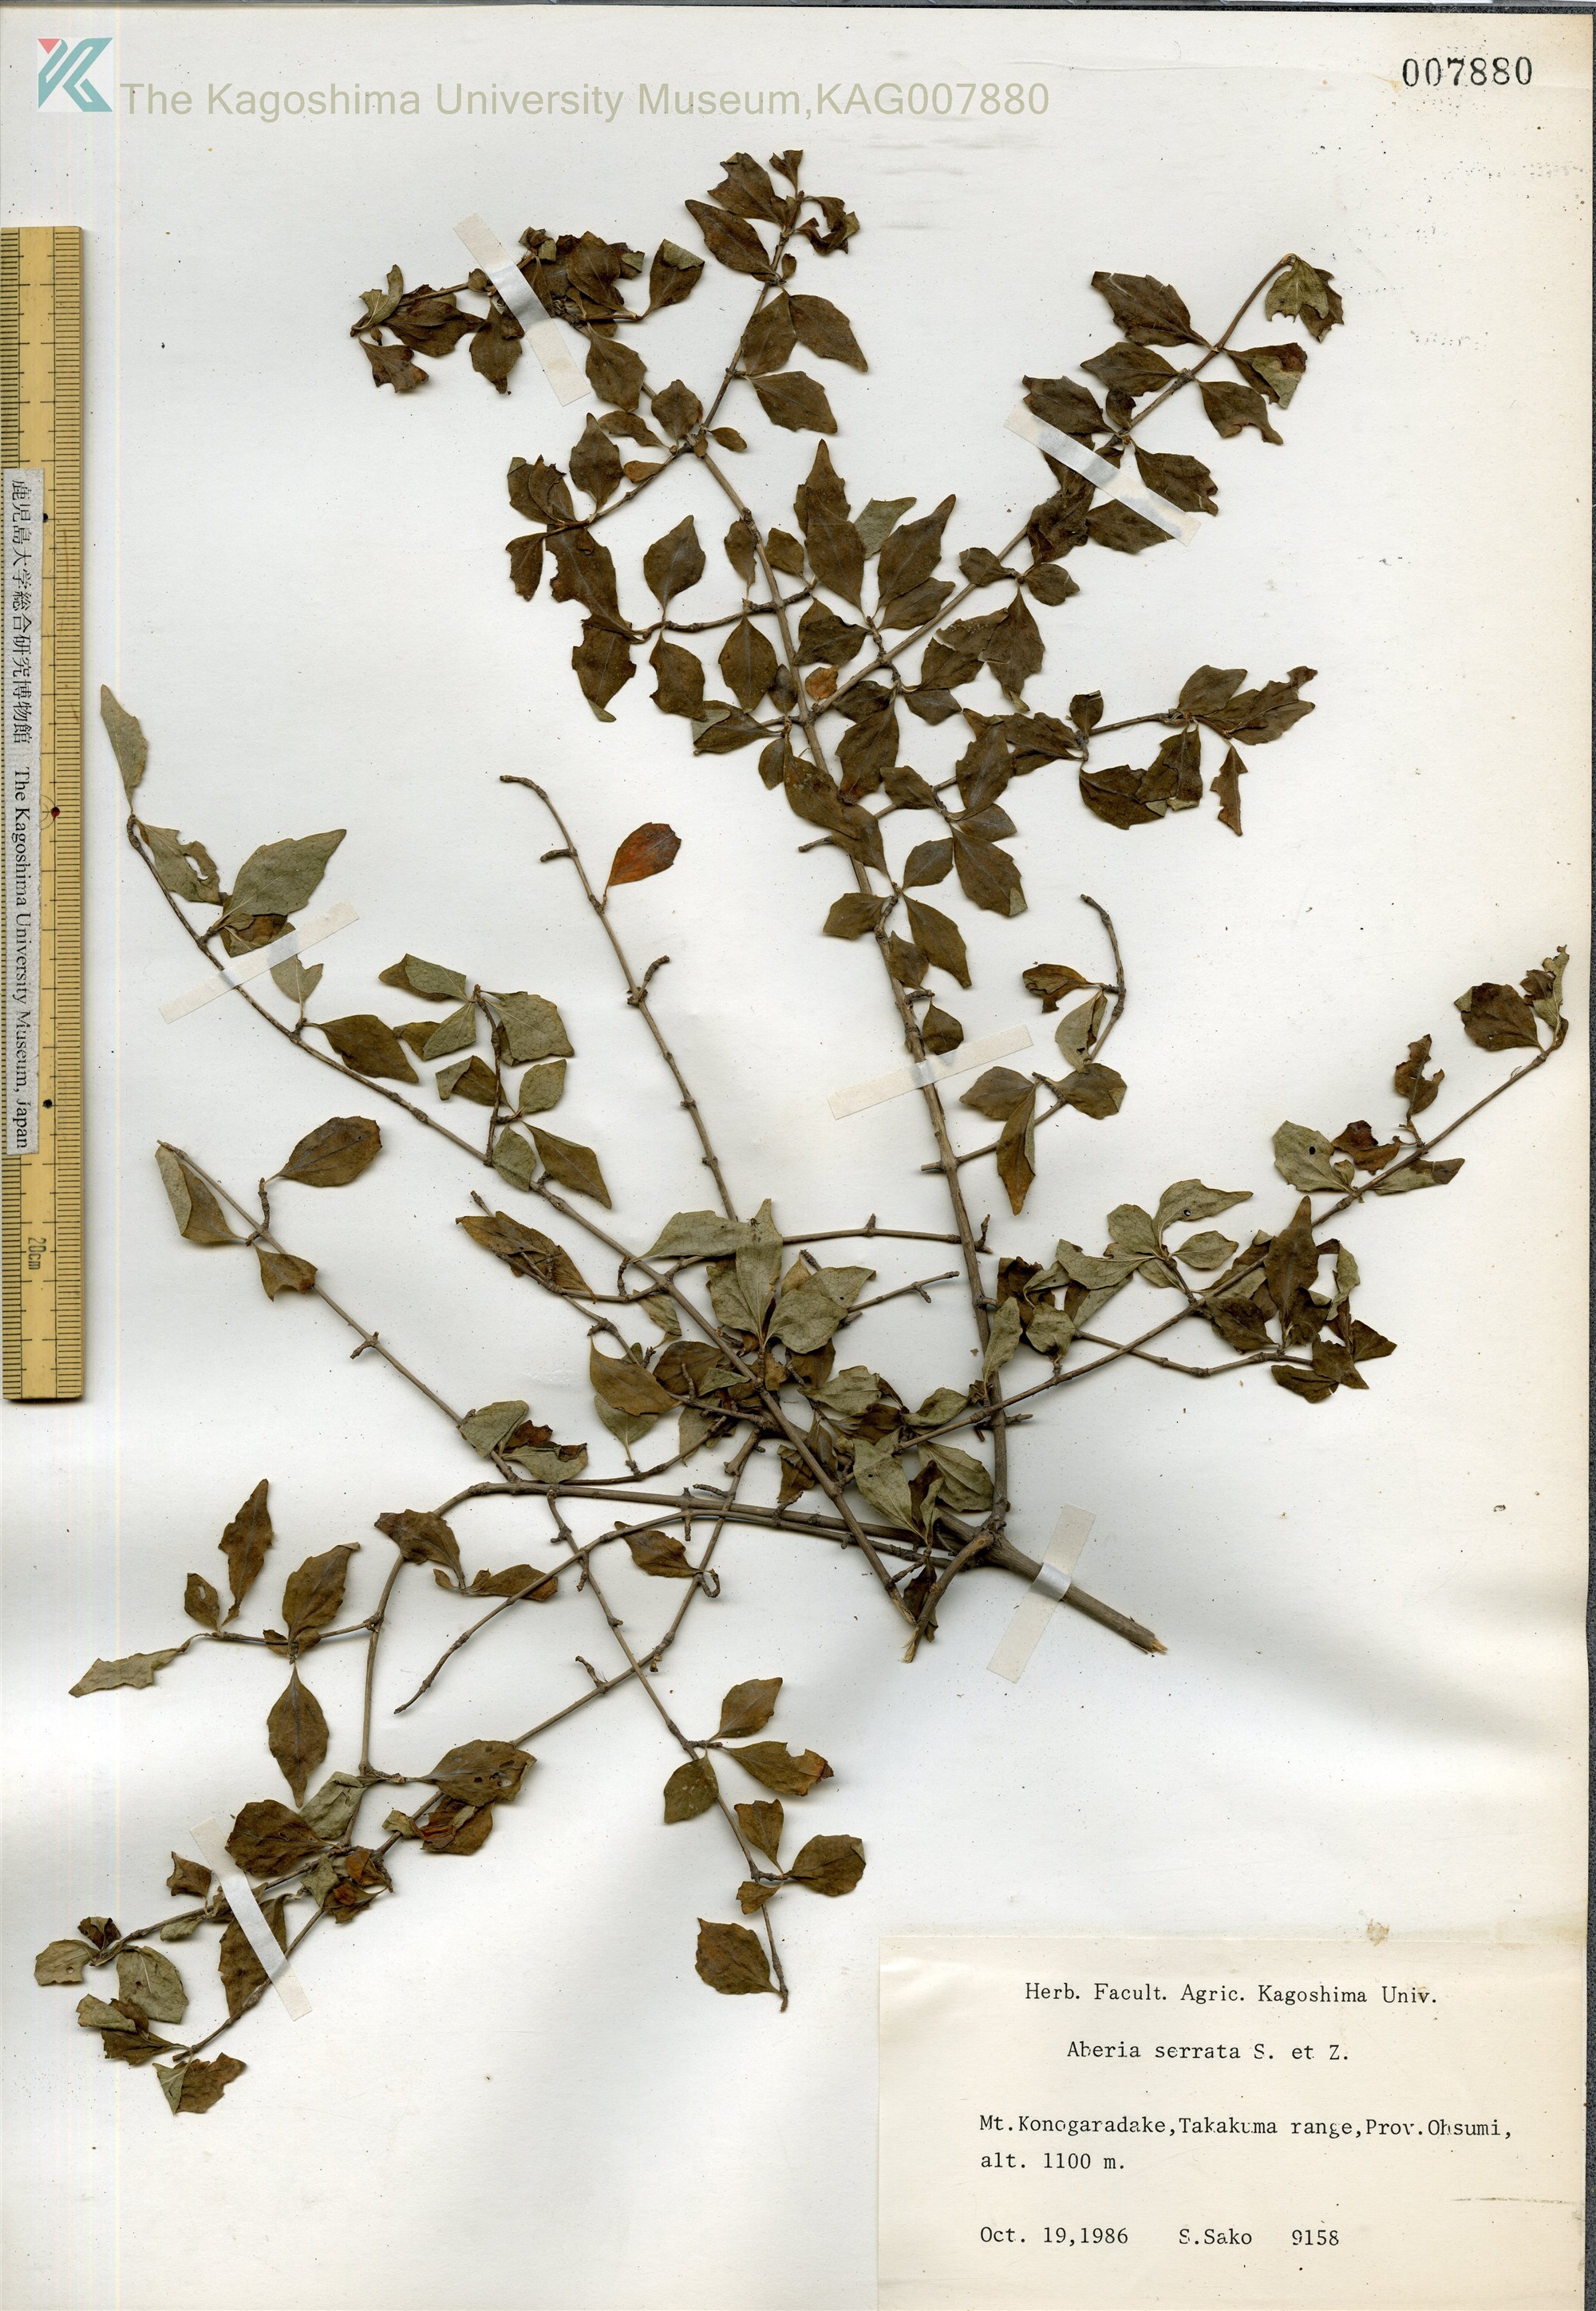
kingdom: Plantae
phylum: Tracheophyta
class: Magnoliopsida
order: Dipsacales
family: Caprifoliaceae
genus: Diabelia
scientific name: Diabelia serrata
